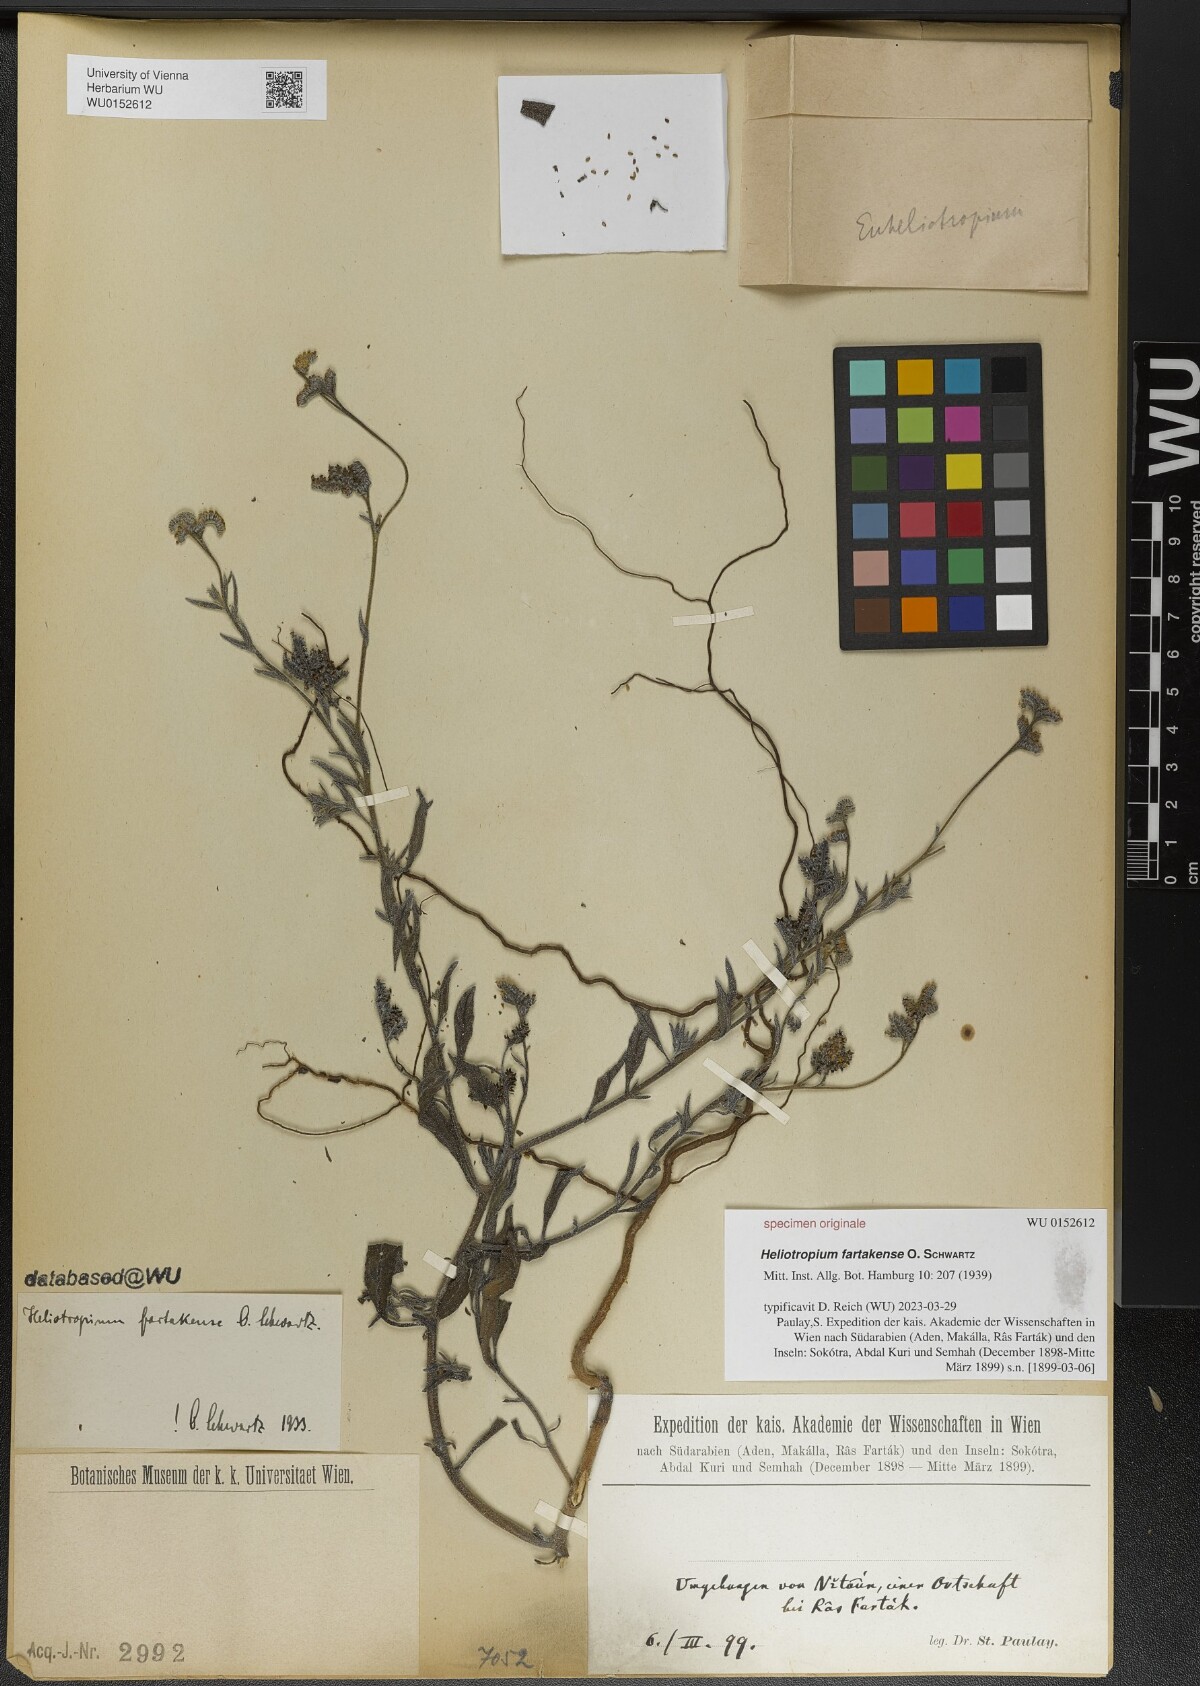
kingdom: Plantae
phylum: Tracheophyta
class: Magnoliopsida
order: Boraginales
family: Heliotropiaceae
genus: Heliotropium
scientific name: Heliotropium bacciferum
